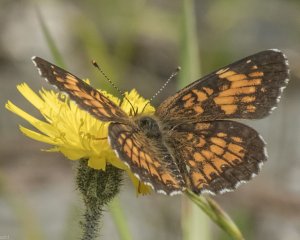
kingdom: Animalia
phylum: Arthropoda
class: Insecta
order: Lepidoptera
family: Nymphalidae
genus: Chlosyne
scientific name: Chlosyne harrisii
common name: Harris's Checkerspot
